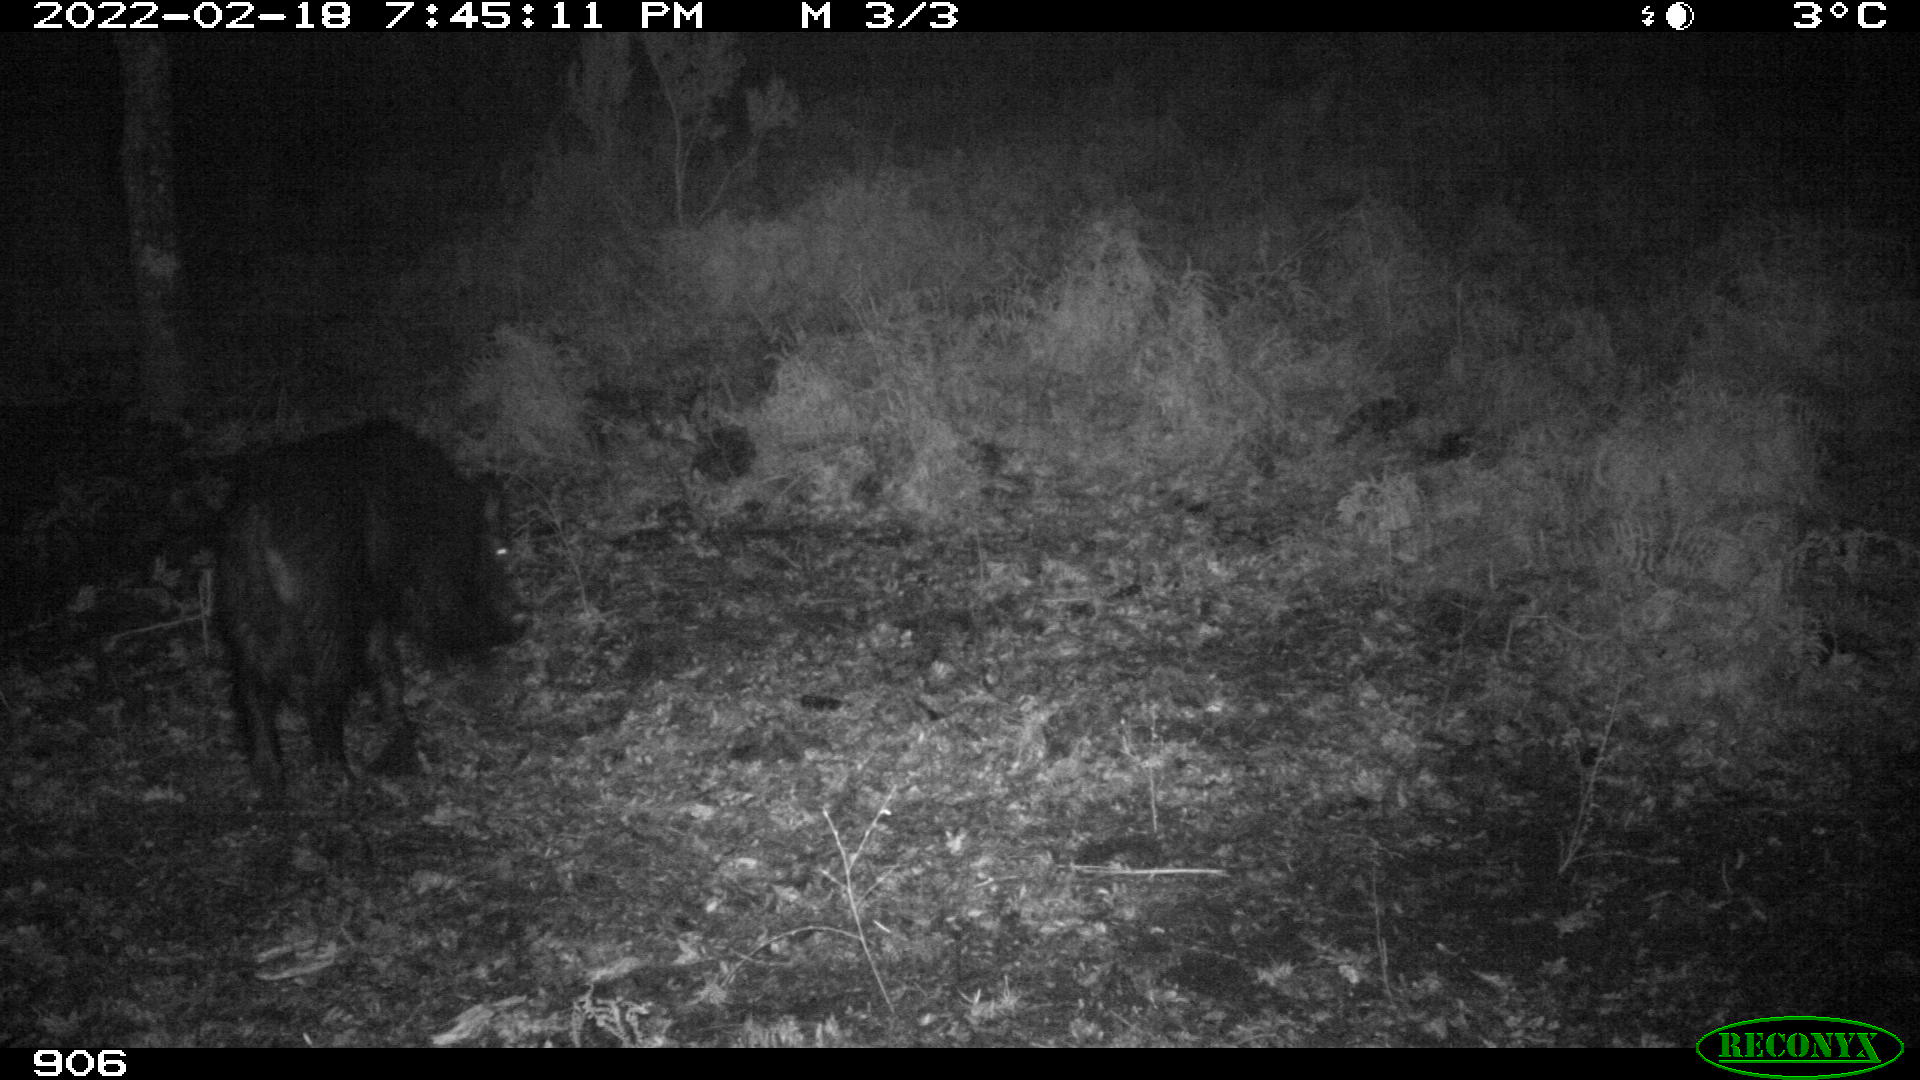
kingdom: Animalia
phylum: Chordata
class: Mammalia
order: Artiodactyla
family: Suidae
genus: Sus
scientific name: Sus scrofa
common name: Wild boar
